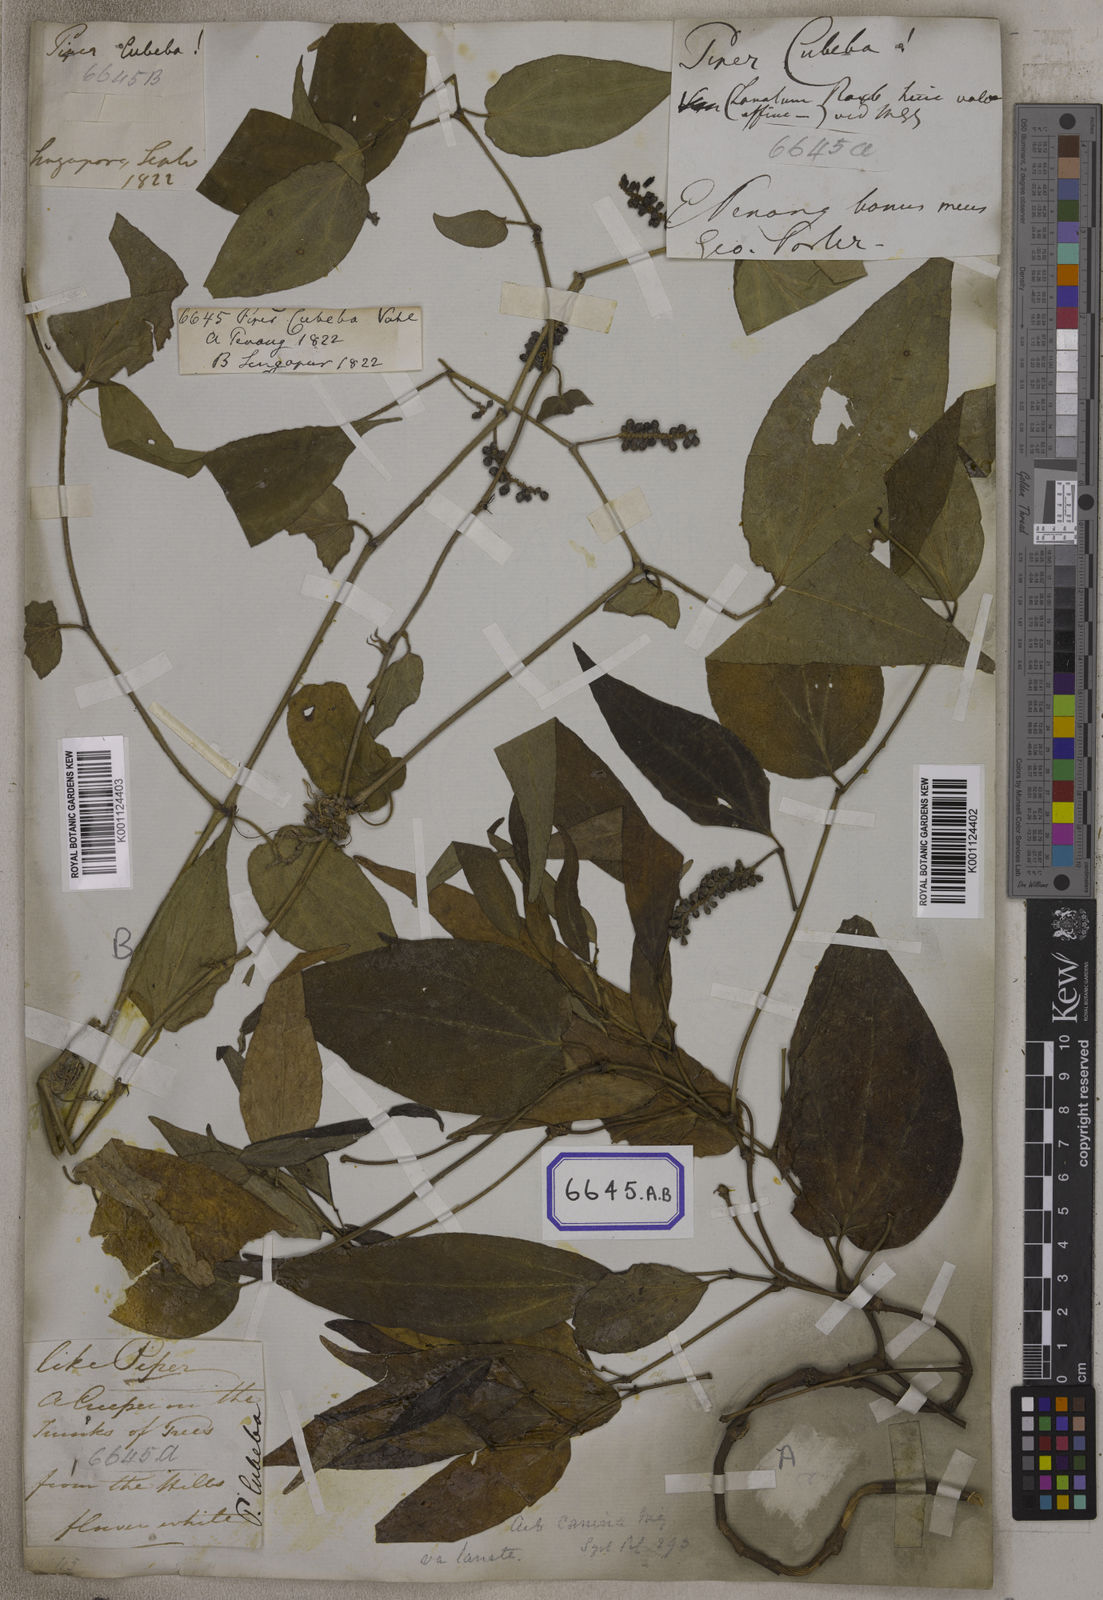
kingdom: Plantae
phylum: Tracheophyta
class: Magnoliopsida
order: Piperales
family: Piperaceae
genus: Piper
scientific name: Piper
